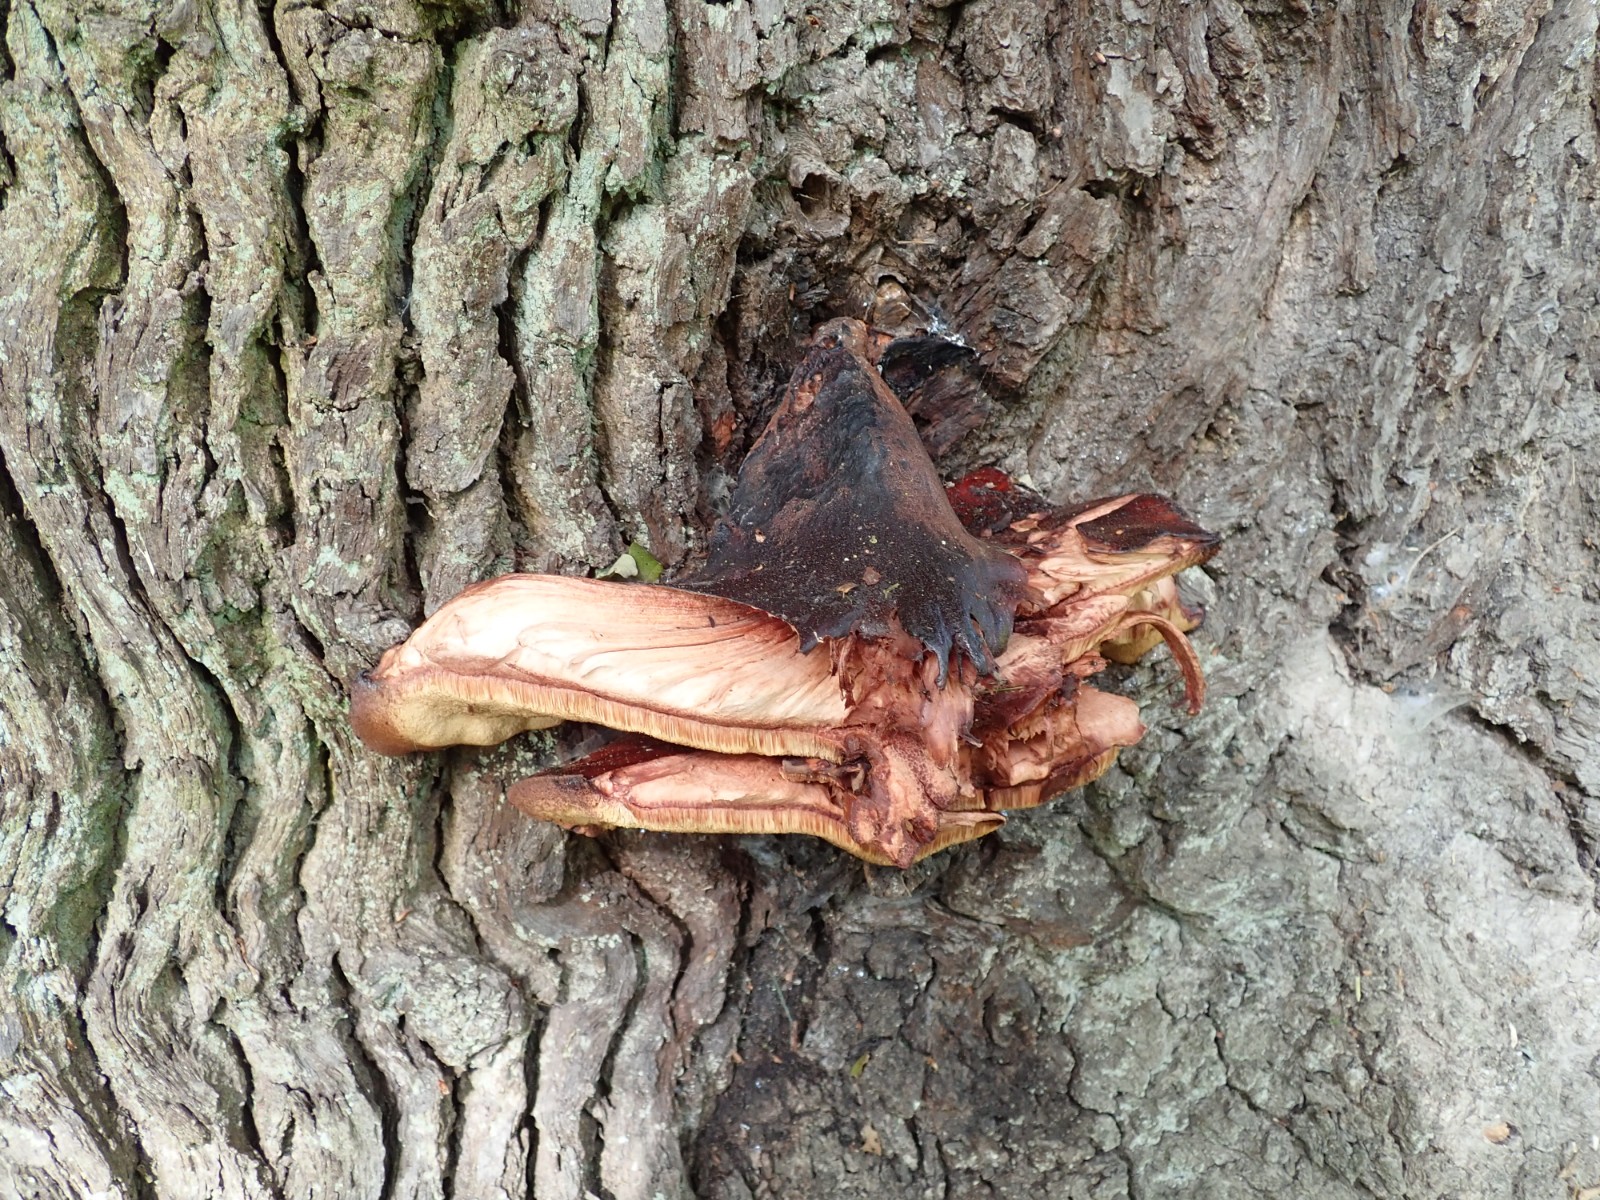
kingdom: Fungi
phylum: Basidiomycota
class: Agaricomycetes
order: Agaricales
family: Fistulinaceae
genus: Fistulina
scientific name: Fistulina hepatica
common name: oksetunge
